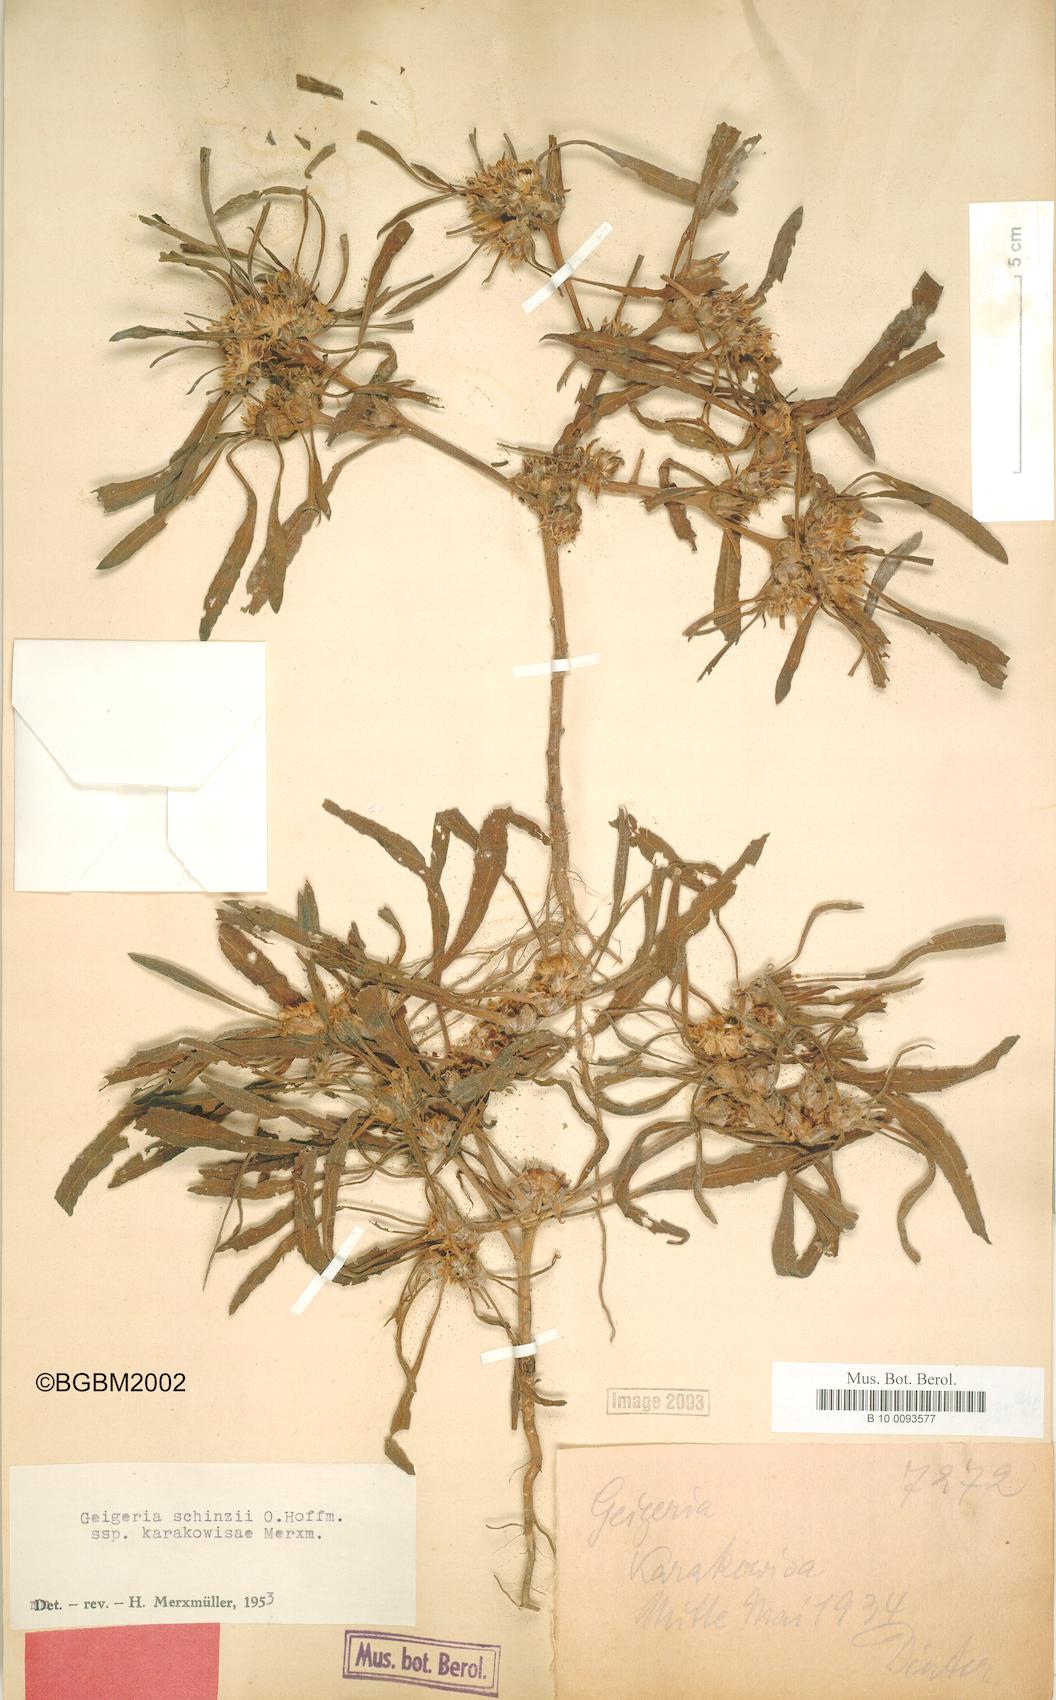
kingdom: Plantae
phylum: Tracheophyta
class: Magnoliopsida
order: Asterales
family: Asteraceae
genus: Geigeria
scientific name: Geigeria schinzii
